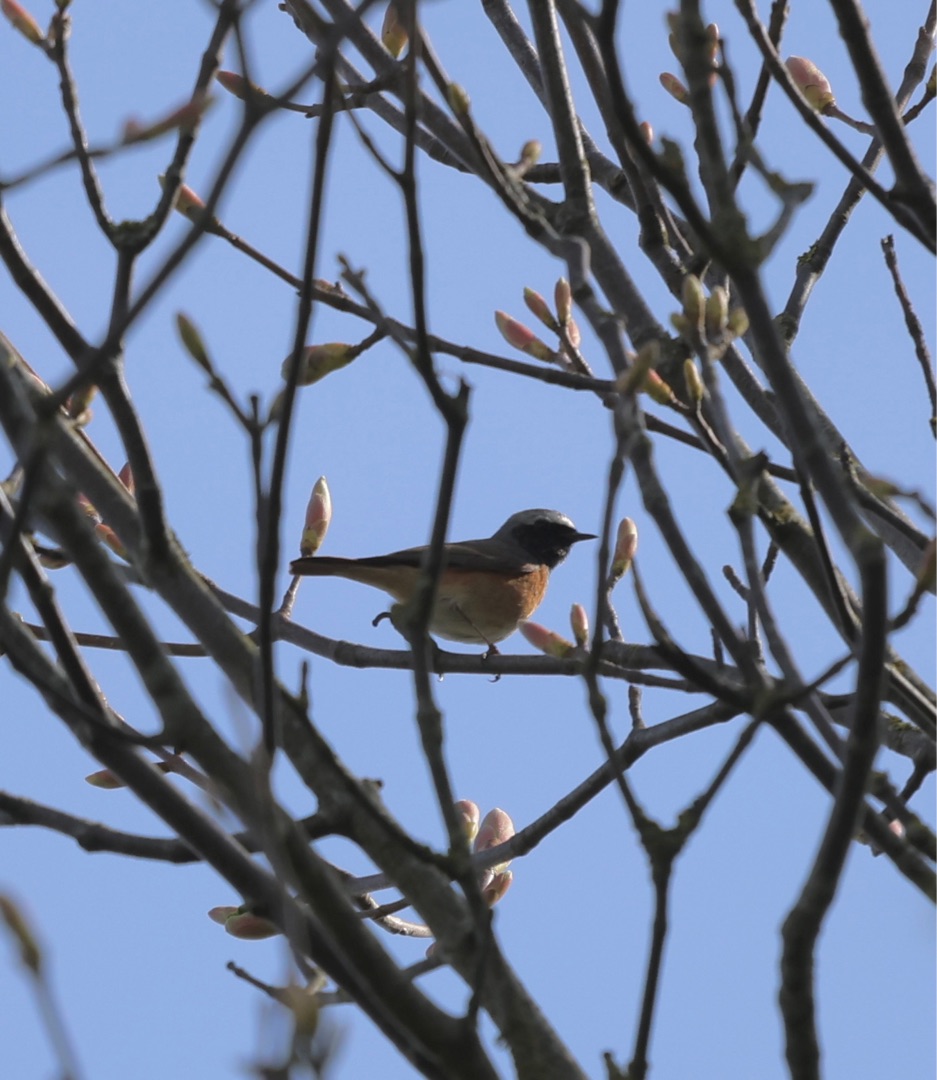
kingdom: Animalia
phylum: Chordata
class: Aves
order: Passeriformes
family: Muscicapidae
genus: Phoenicurus
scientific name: Phoenicurus phoenicurus
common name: Rødstjert
